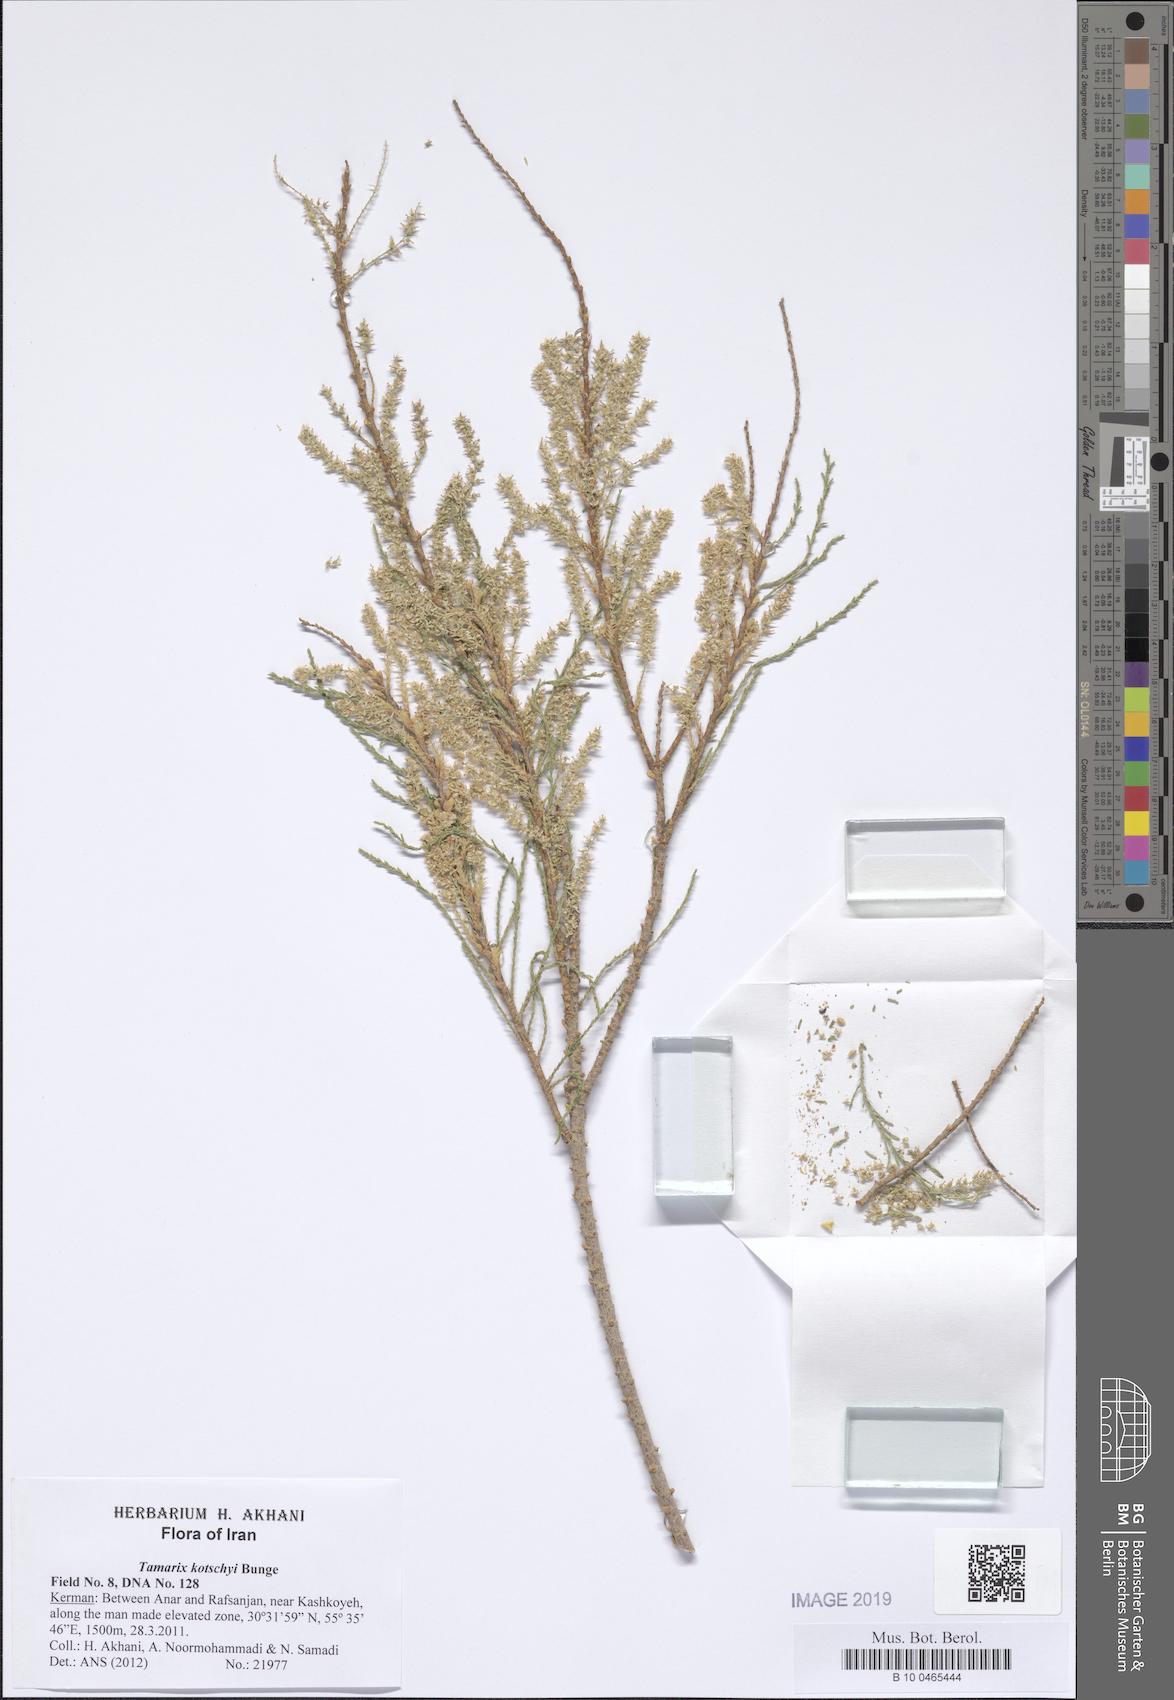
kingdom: Plantae
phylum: Tracheophyta
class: Magnoliopsida
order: Caryophyllales
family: Tamaricaceae
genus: Tamarix
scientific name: Tamarix kotschyi
